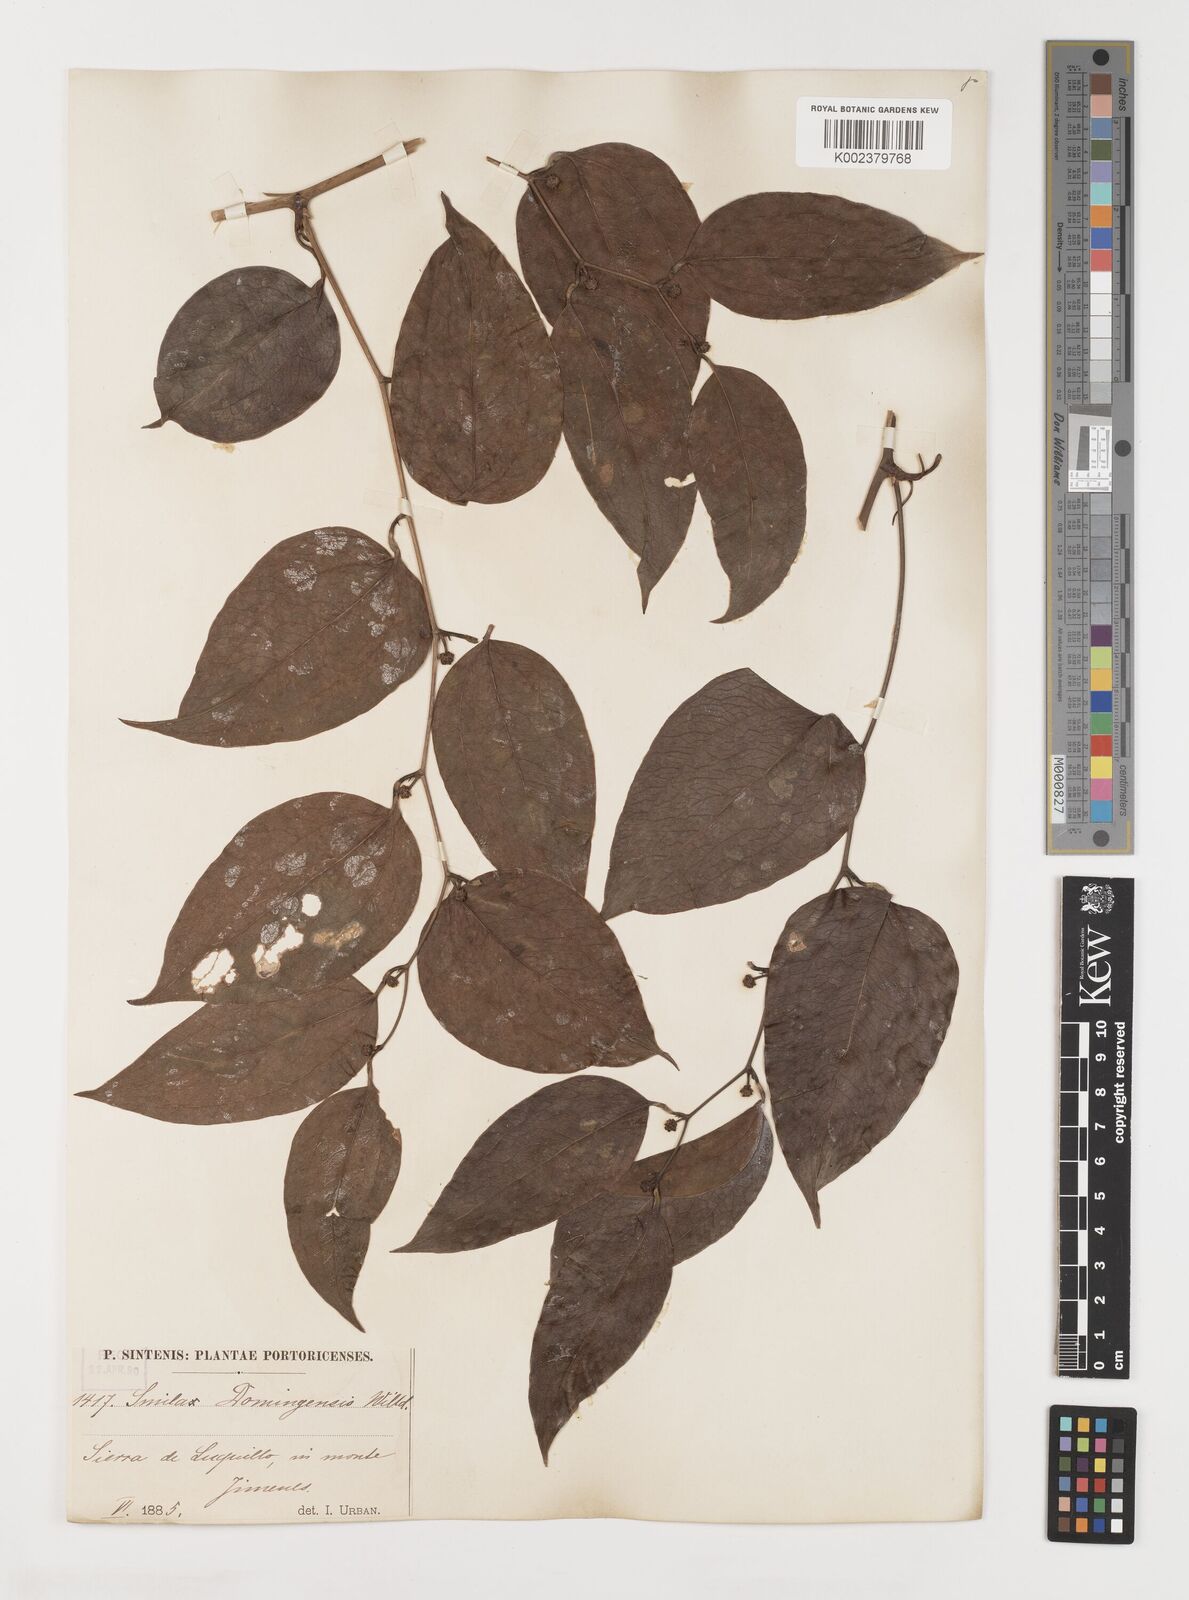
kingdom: Plantae
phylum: Tracheophyta
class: Liliopsida
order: Liliales
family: Smilacaceae
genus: Smilax
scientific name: Smilax domingensis
